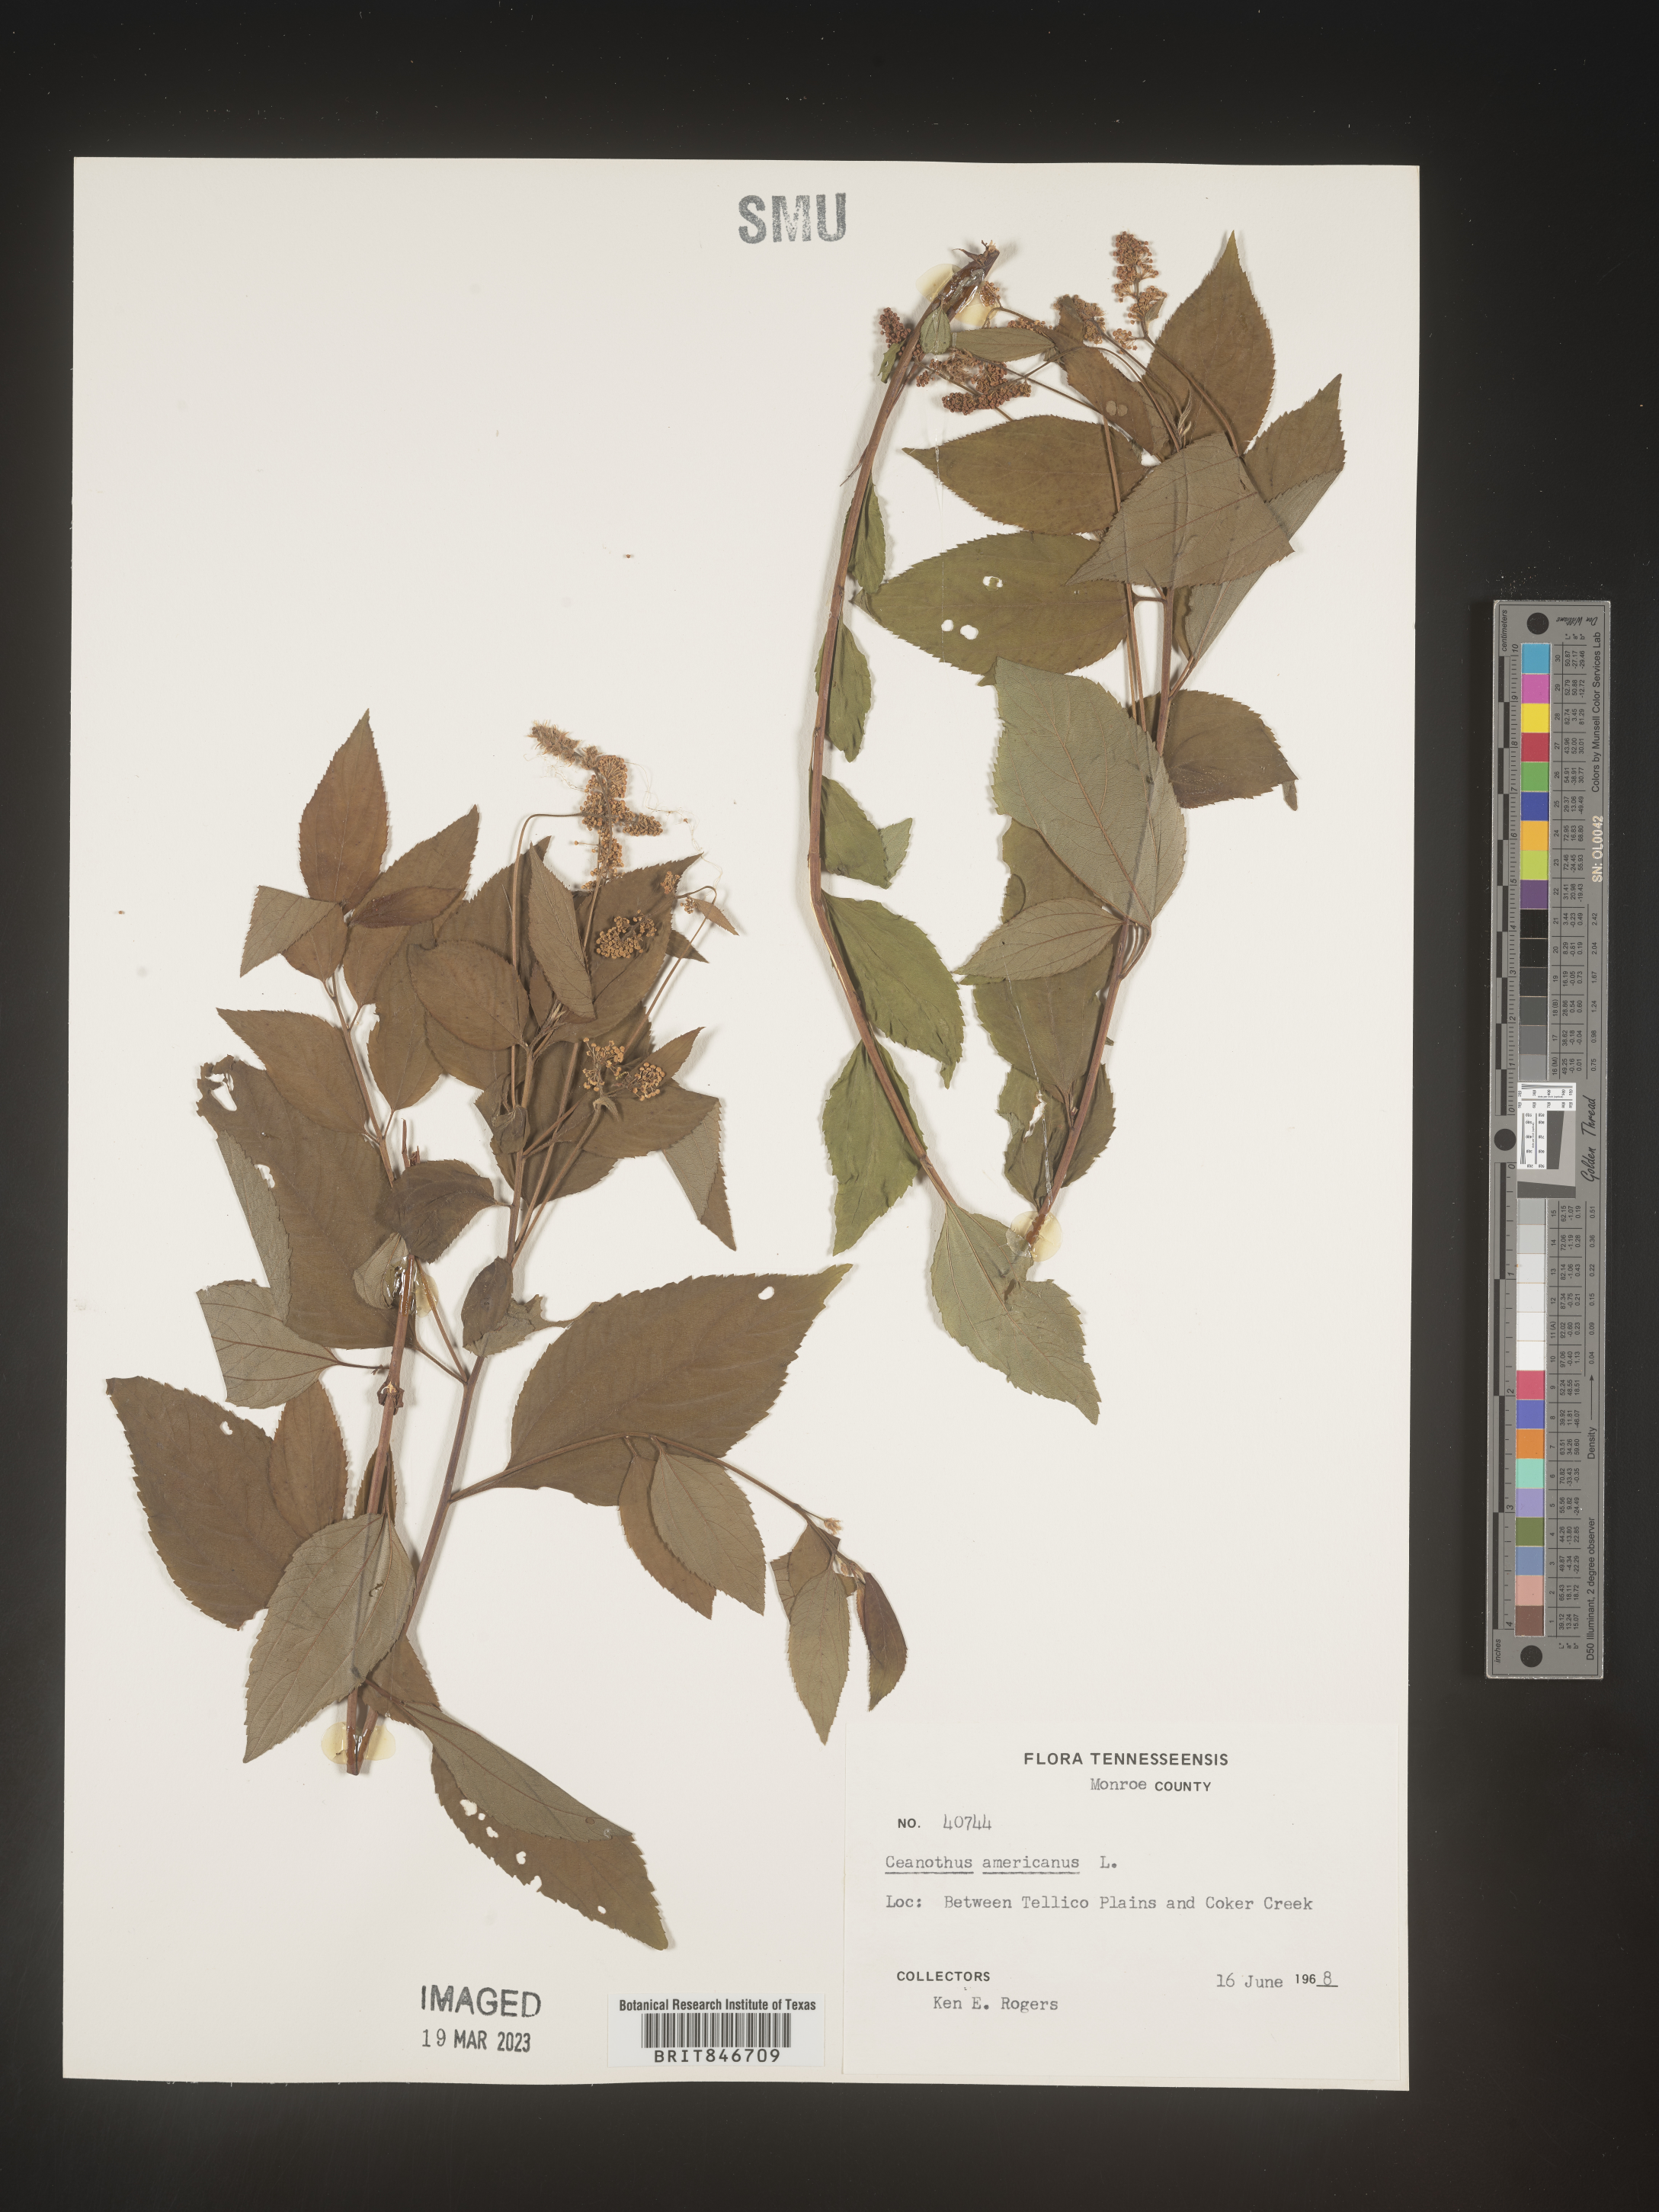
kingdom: Plantae
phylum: Tracheophyta
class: Magnoliopsida
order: Rosales
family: Rhamnaceae
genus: Ceanothus
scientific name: Ceanothus americanus
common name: Redroot
